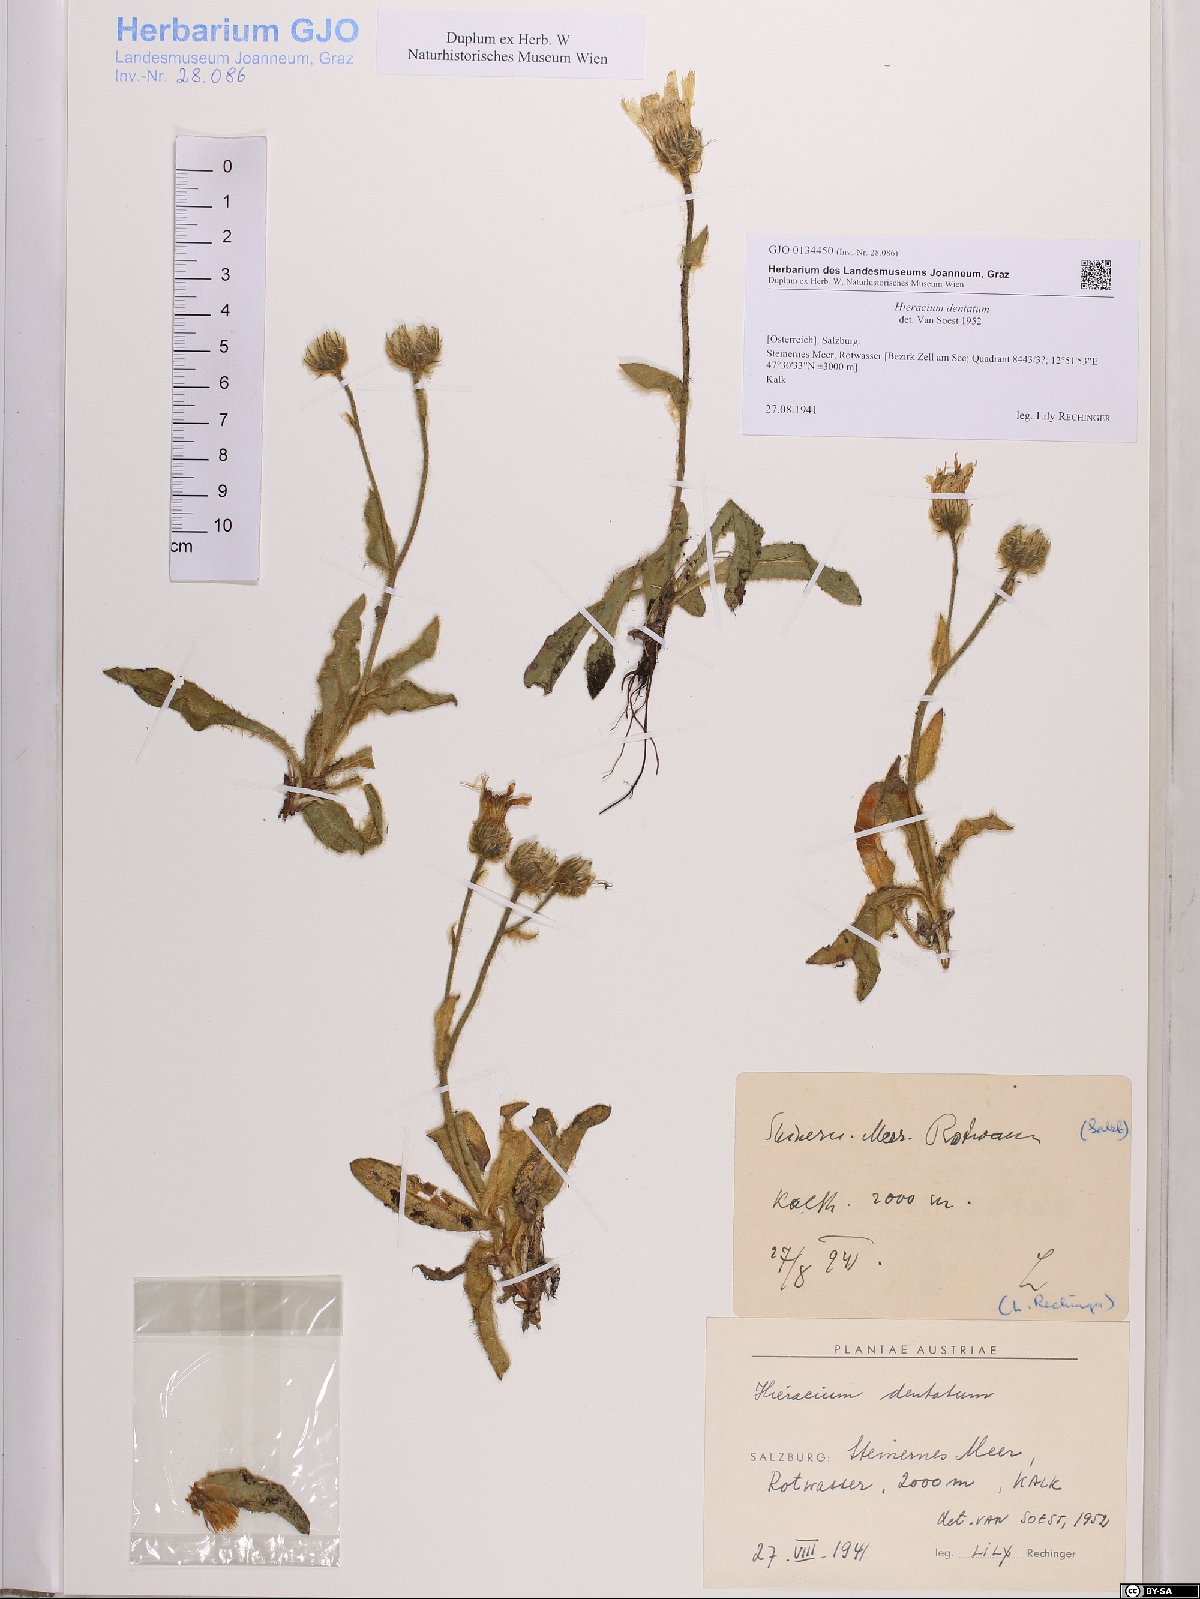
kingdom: Plantae
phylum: Tracheophyta
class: Magnoliopsida
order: Asterales
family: Asteraceae
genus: Hieracium
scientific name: Hieracium dentatum
